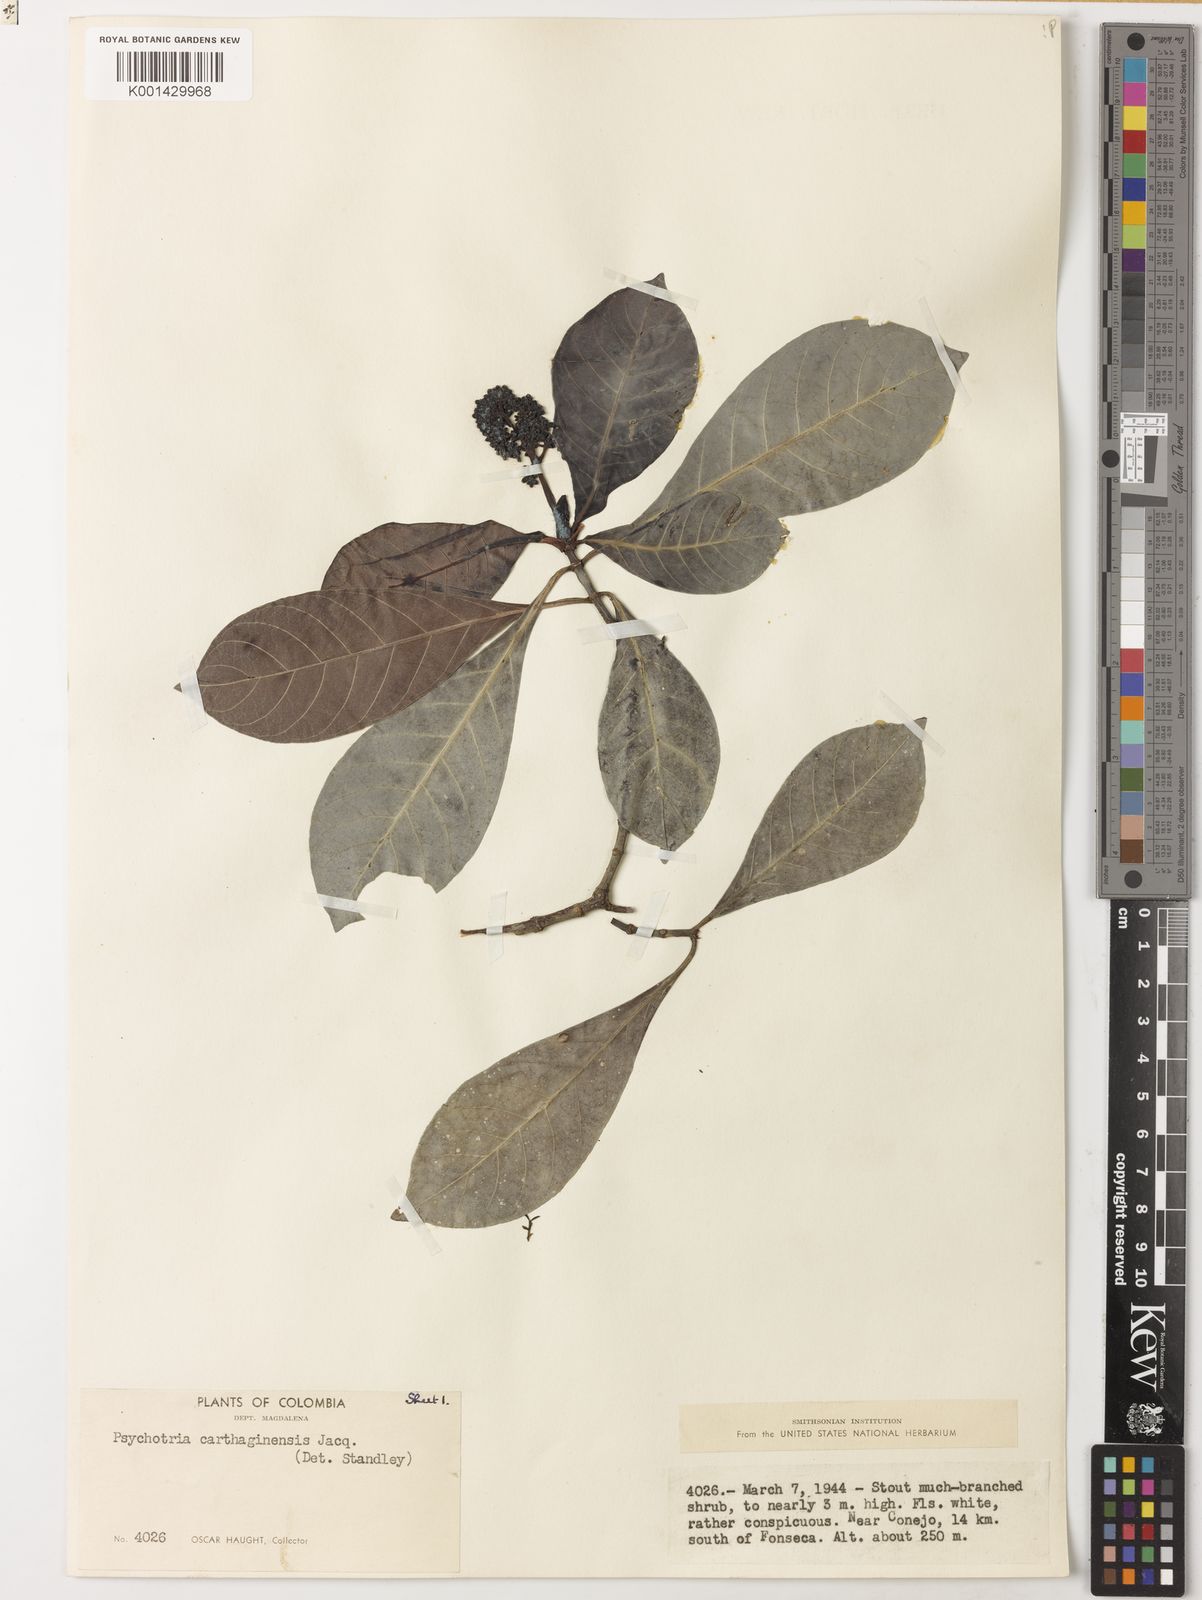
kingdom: Plantae
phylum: Tracheophyta
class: Magnoliopsida
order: Gentianales
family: Rubiaceae
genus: Psychotria
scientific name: Psychotria carthagenensis
